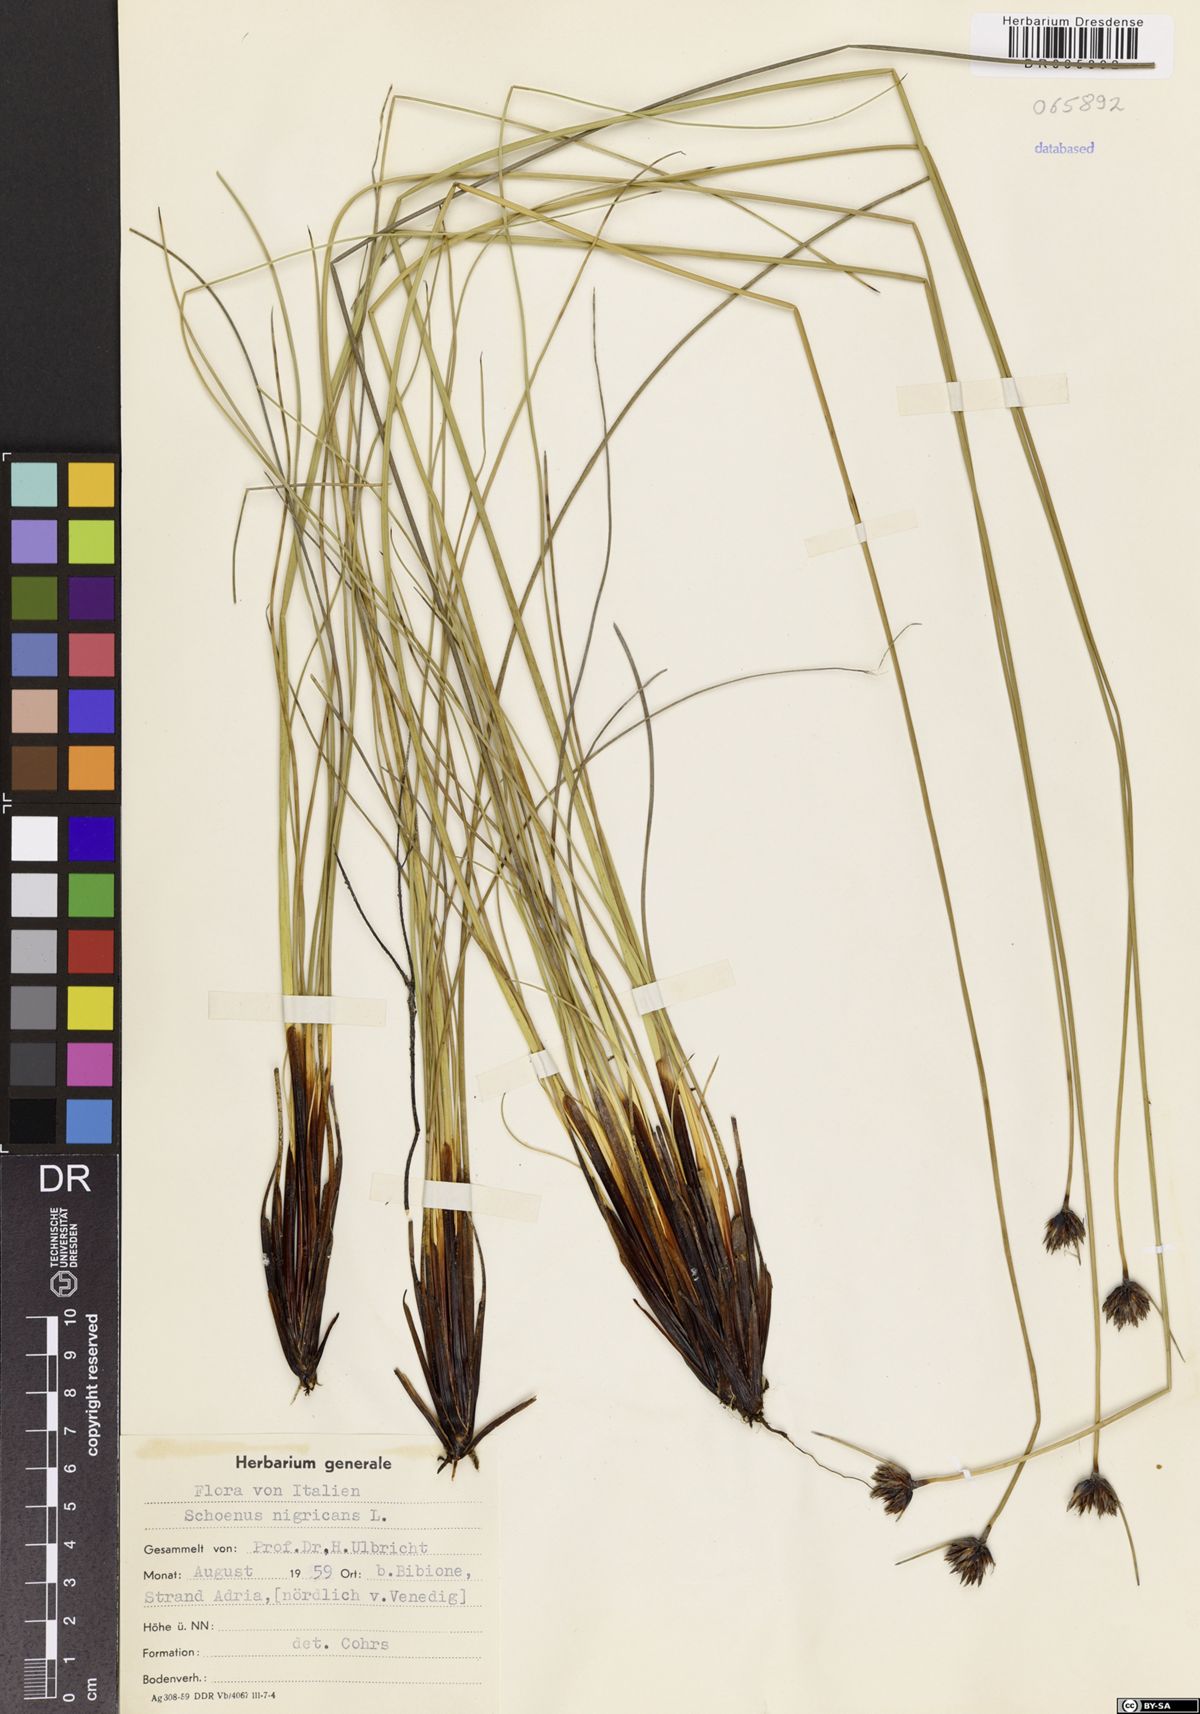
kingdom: Plantae
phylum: Tracheophyta
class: Liliopsida
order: Poales
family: Cyperaceae
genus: Schoenus
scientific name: Schoenus nigricans
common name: Black bog-rush
